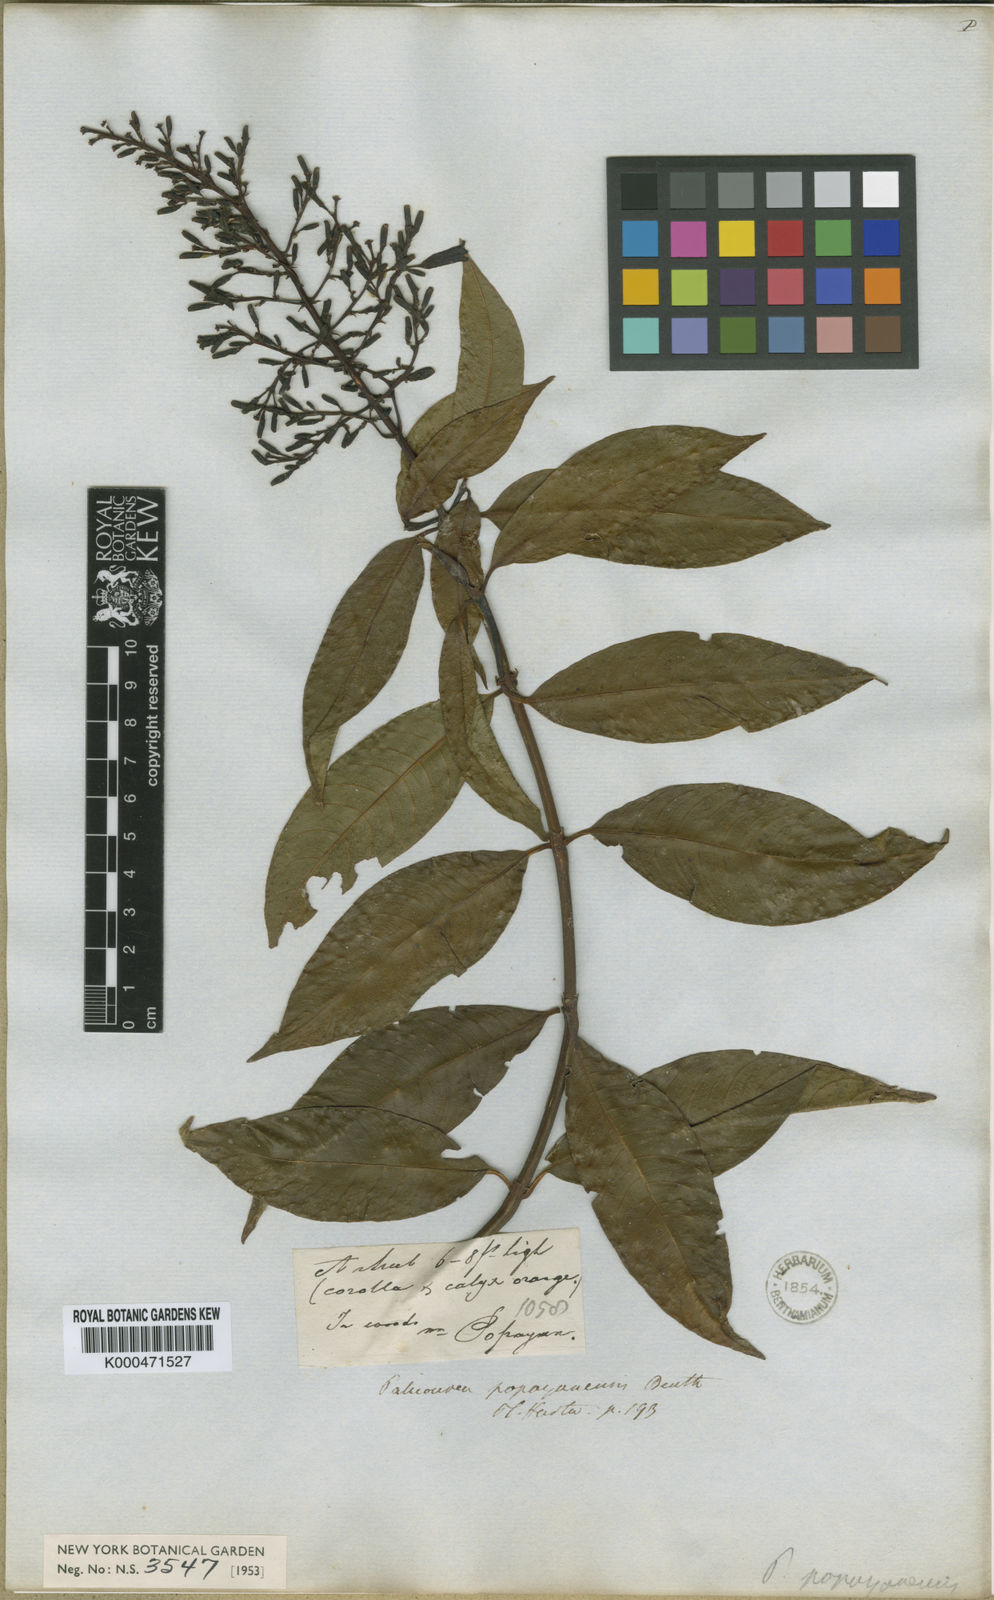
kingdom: Plantae
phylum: Tracheophyta
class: Magnoliopsida
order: Gentianales
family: Rubiaceae
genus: Palicourea
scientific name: Palicourea thyrsiflora
